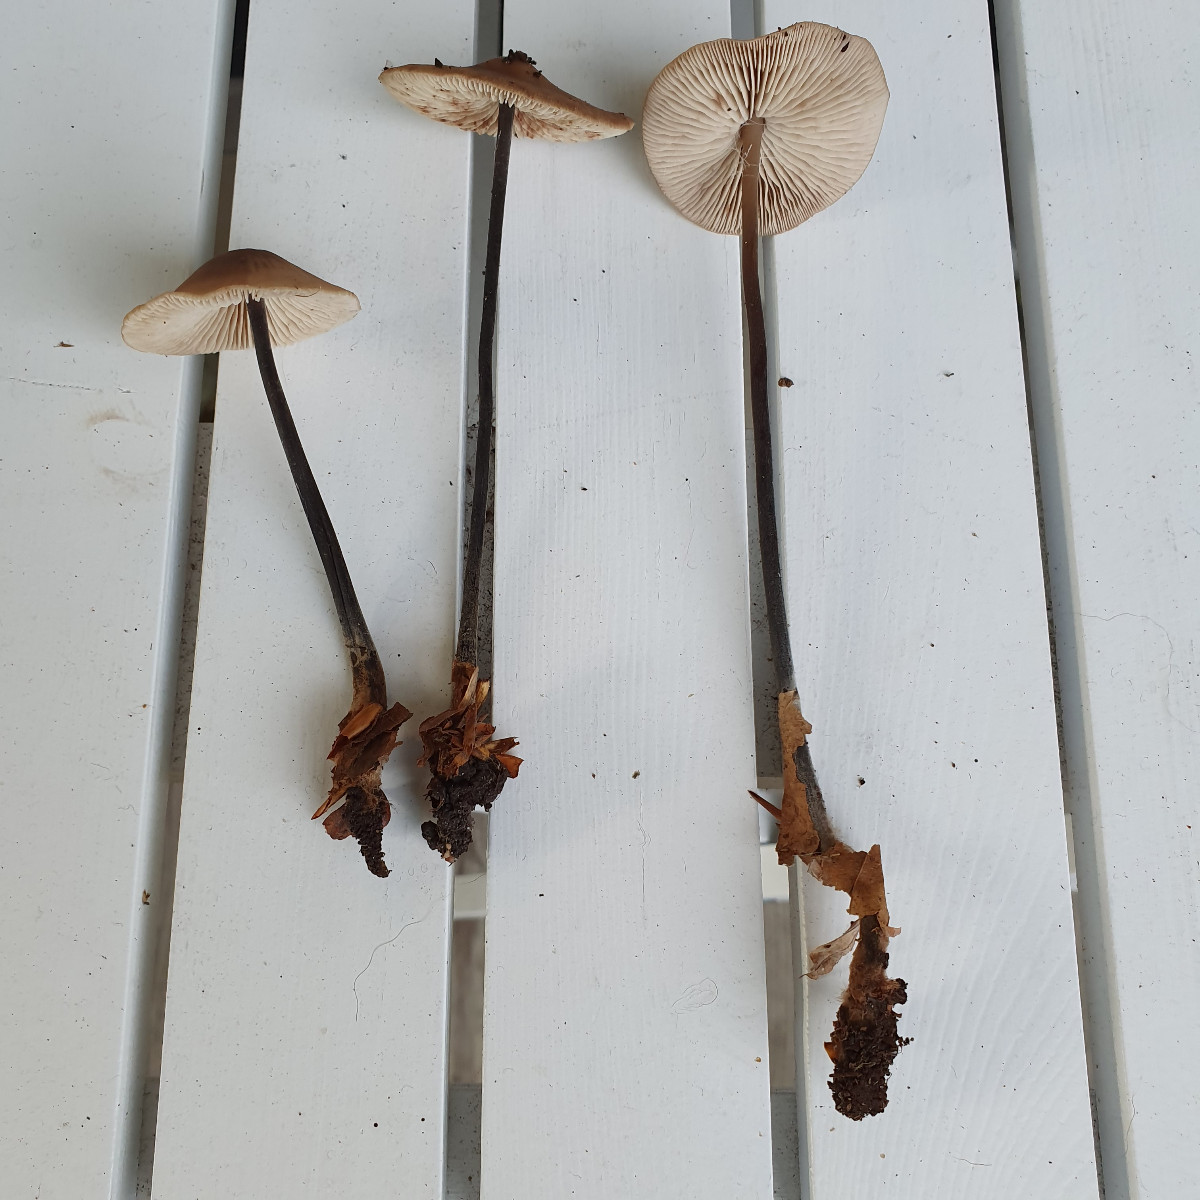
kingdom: Fungi
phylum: Basidiomycota
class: Agaricomycetes
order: Agaricales
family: Omphalotaceae
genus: Mycetinis
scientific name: Mycetinis alliaceus
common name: stor løghat
